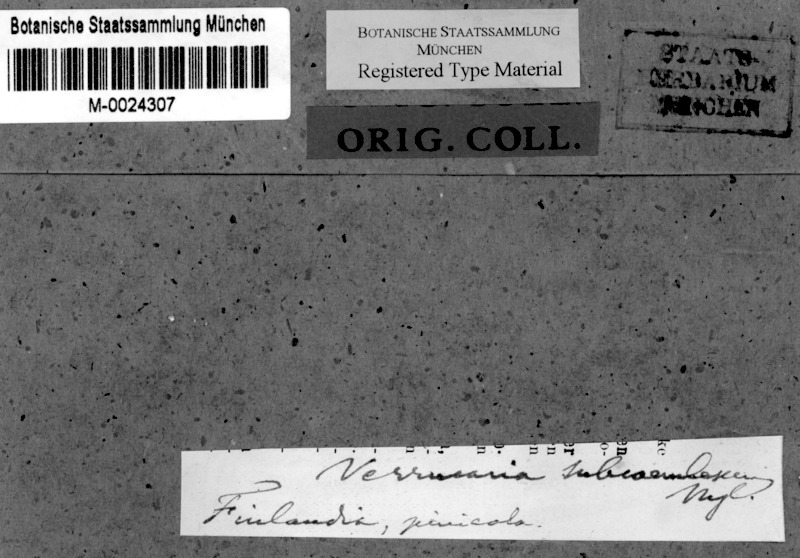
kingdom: Fungi
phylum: Ascomycota
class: Dothideomycetes
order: Dothideales
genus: Mycoglaena
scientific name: Mycoglaena subcoerulescens
